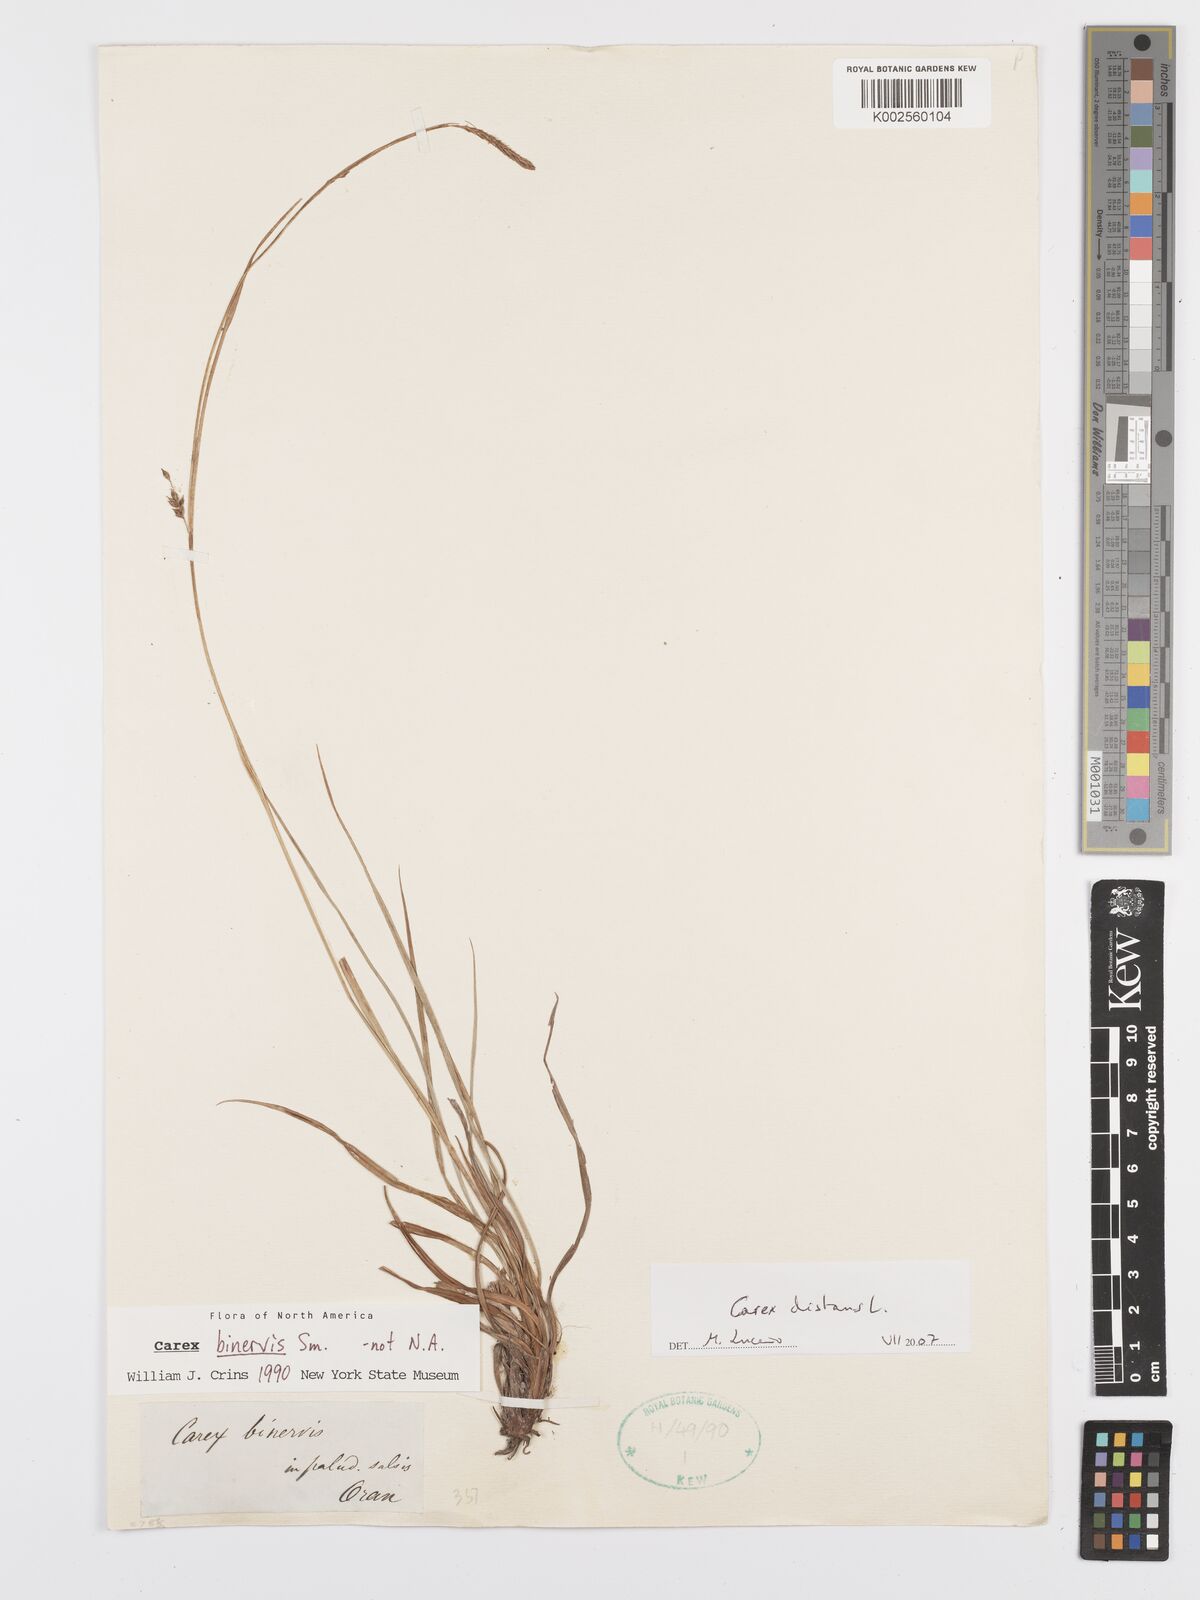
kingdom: Plantae
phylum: Tracheophyta
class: Liliopsida
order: Poales
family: Cyperaceae
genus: Carex
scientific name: Carex distans
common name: Distant sedge
